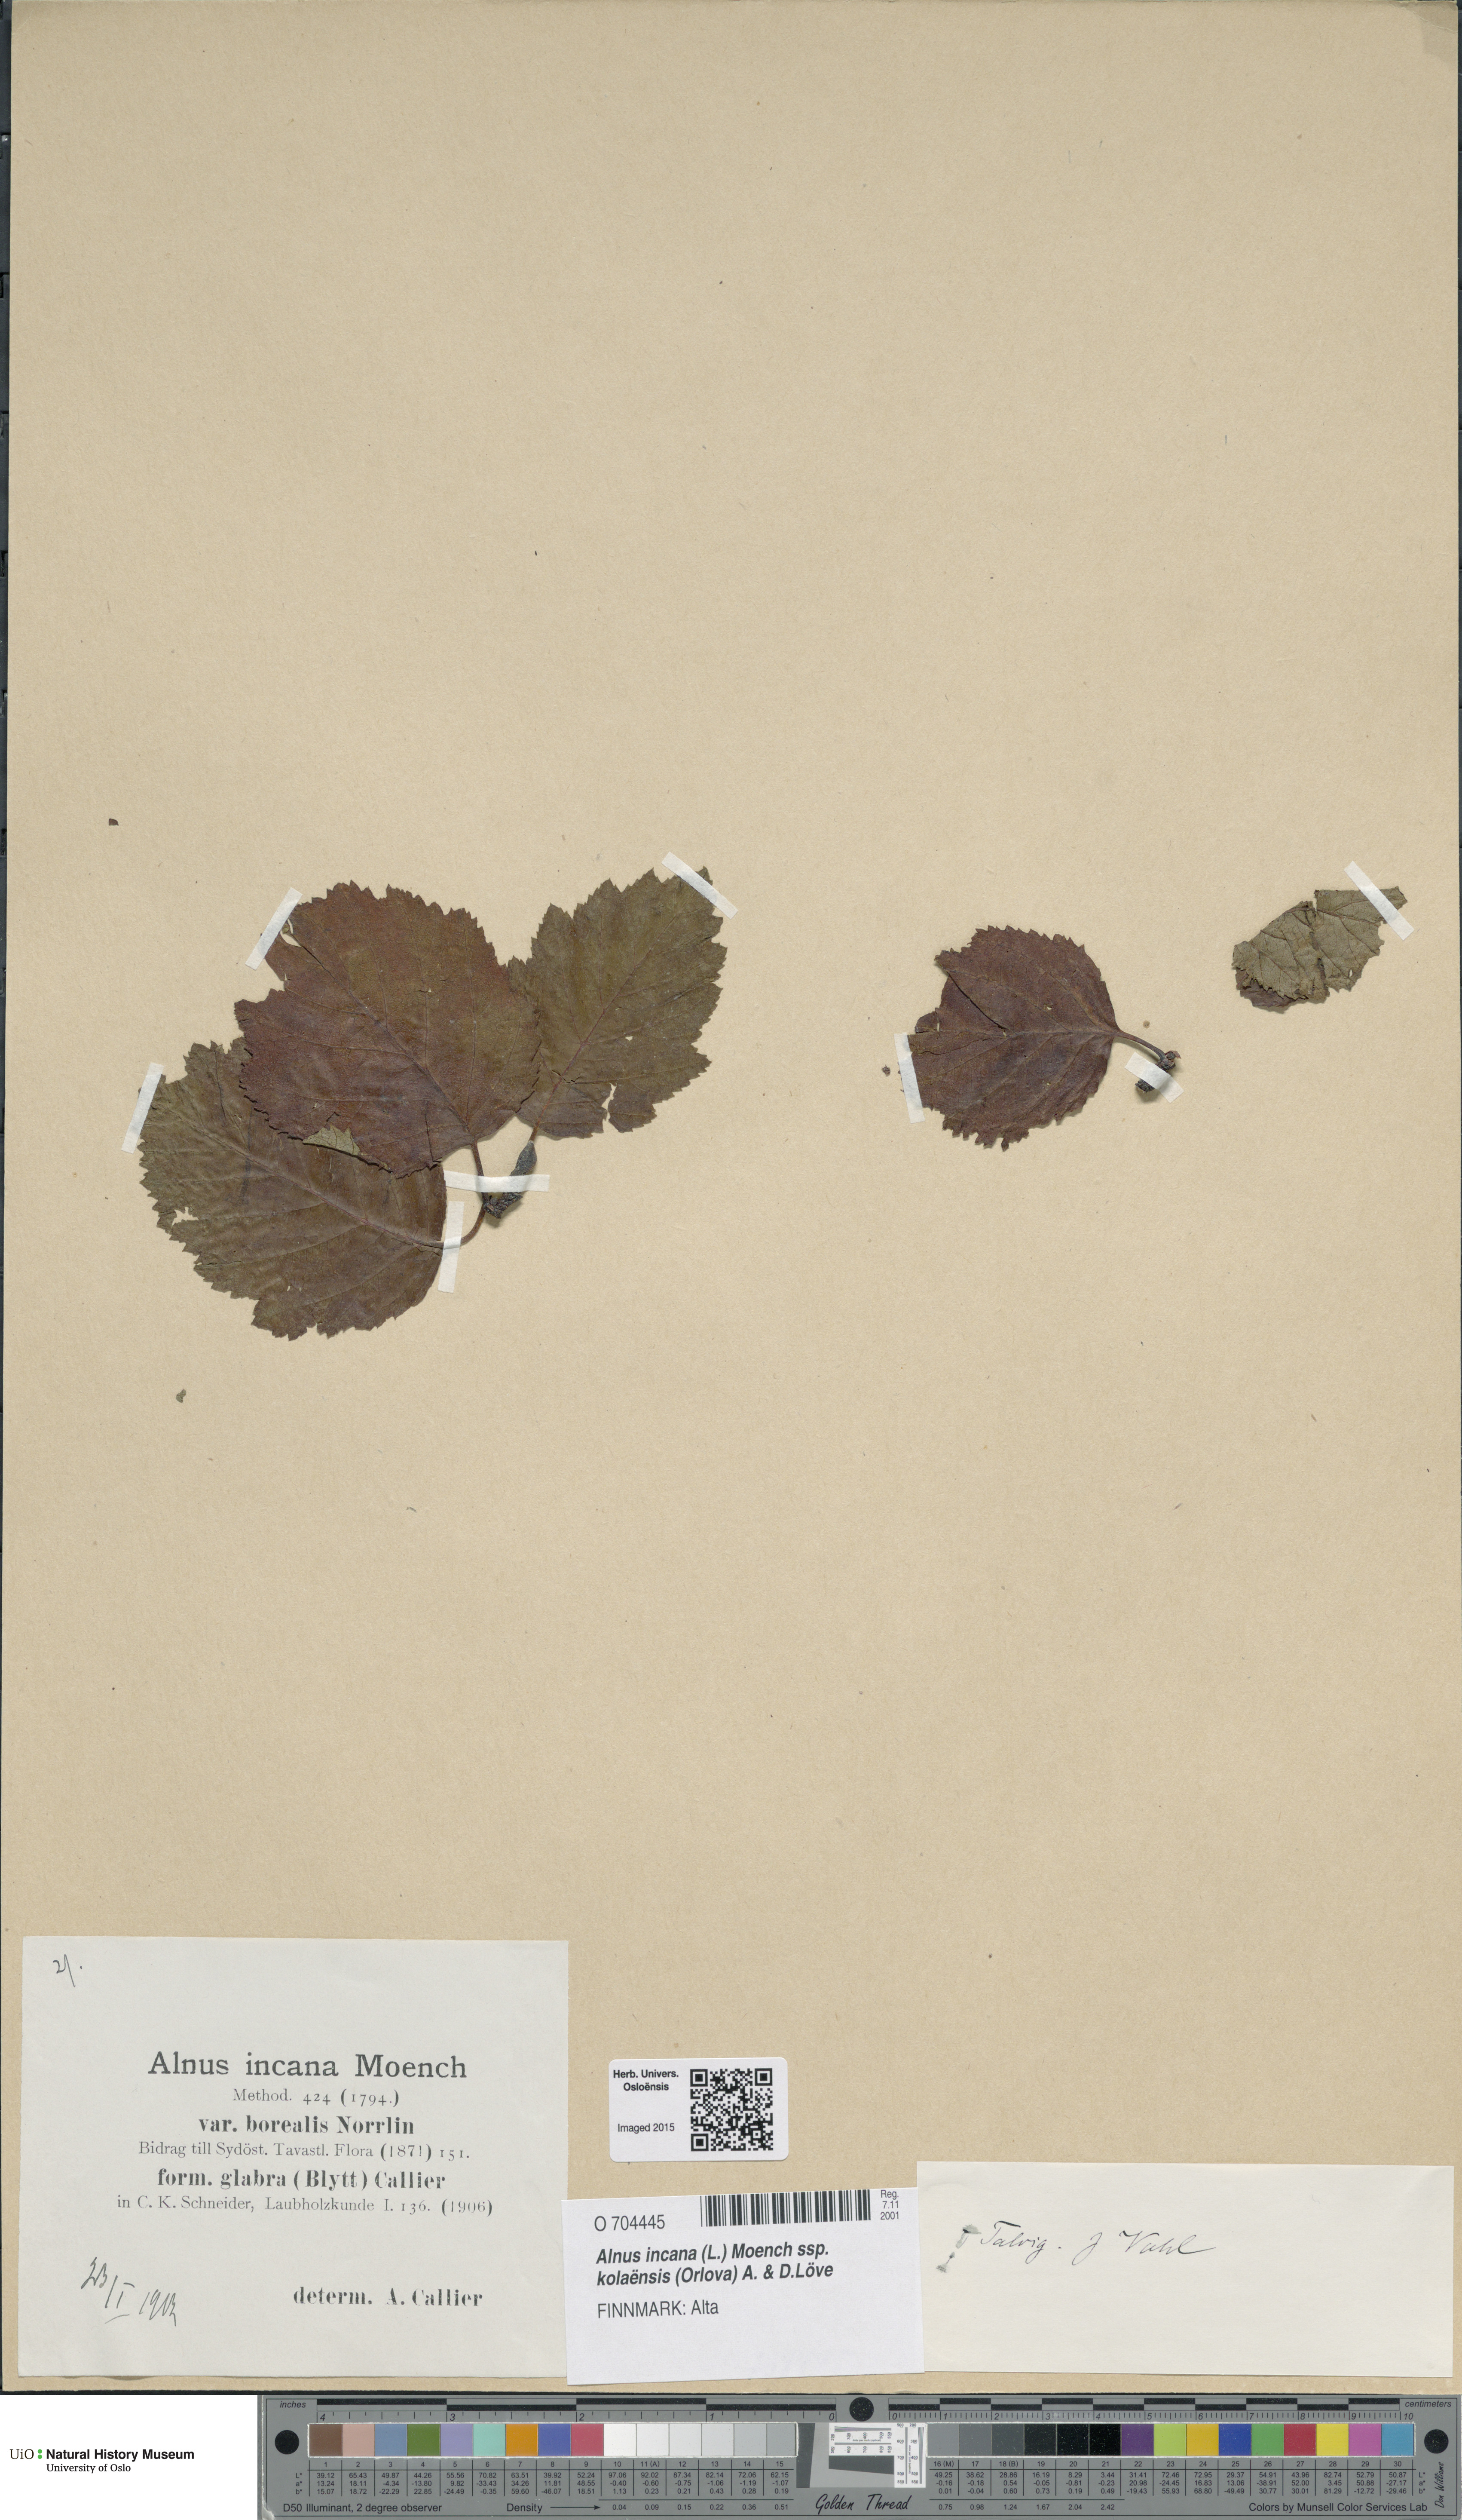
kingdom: Plantae
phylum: Tracheophyta
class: Magnoliopsida
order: Fagales
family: Betulaceae
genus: Alnus
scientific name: Alnus incana
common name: Grey alder
